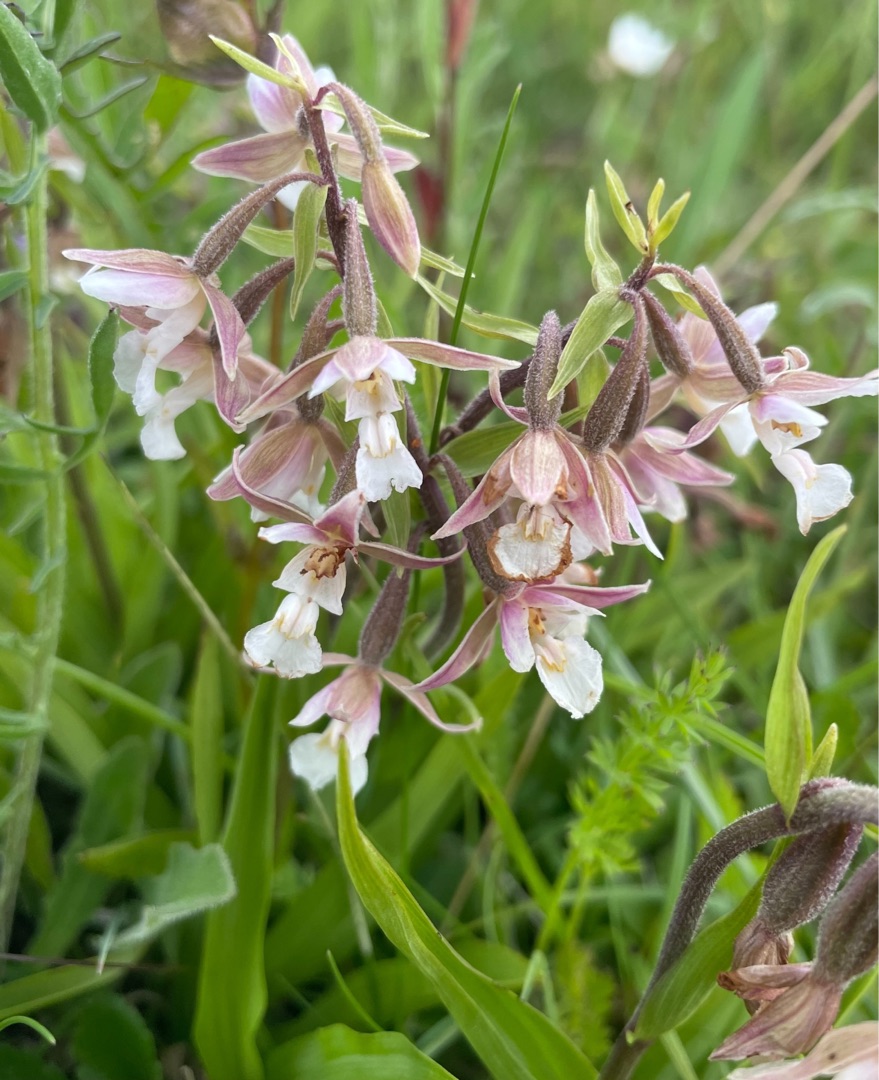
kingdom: Plantae
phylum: Tracheophyta
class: Liliopsida
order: Asparagales
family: Orchidaceae
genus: Epipactis
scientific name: Epipactis palustris
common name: Sump-hullæbe
